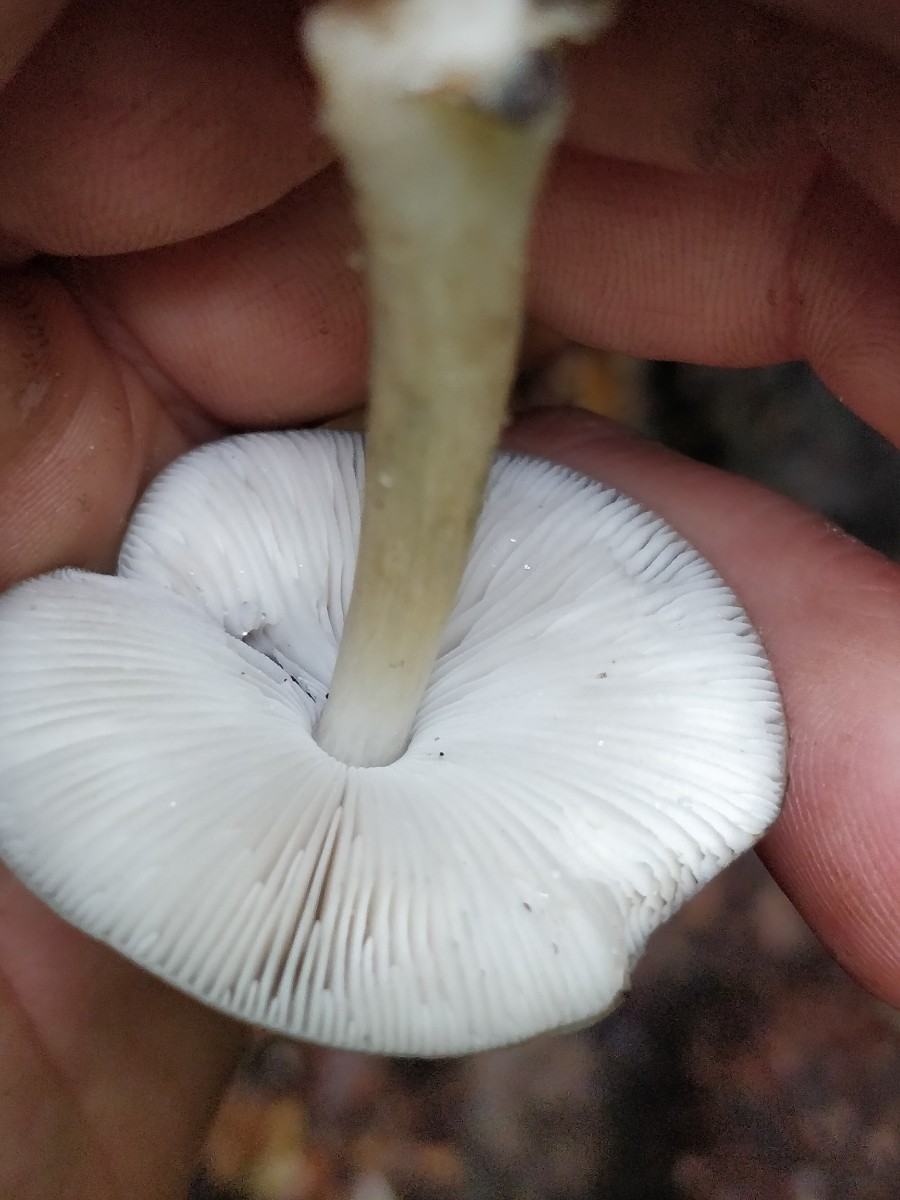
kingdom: Fungi
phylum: Basidiomycota
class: Agaricomycetes
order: Agaricales
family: Pluteaceae
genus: Pluteus
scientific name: Pluteus salicinus
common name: stiv skærmhat
